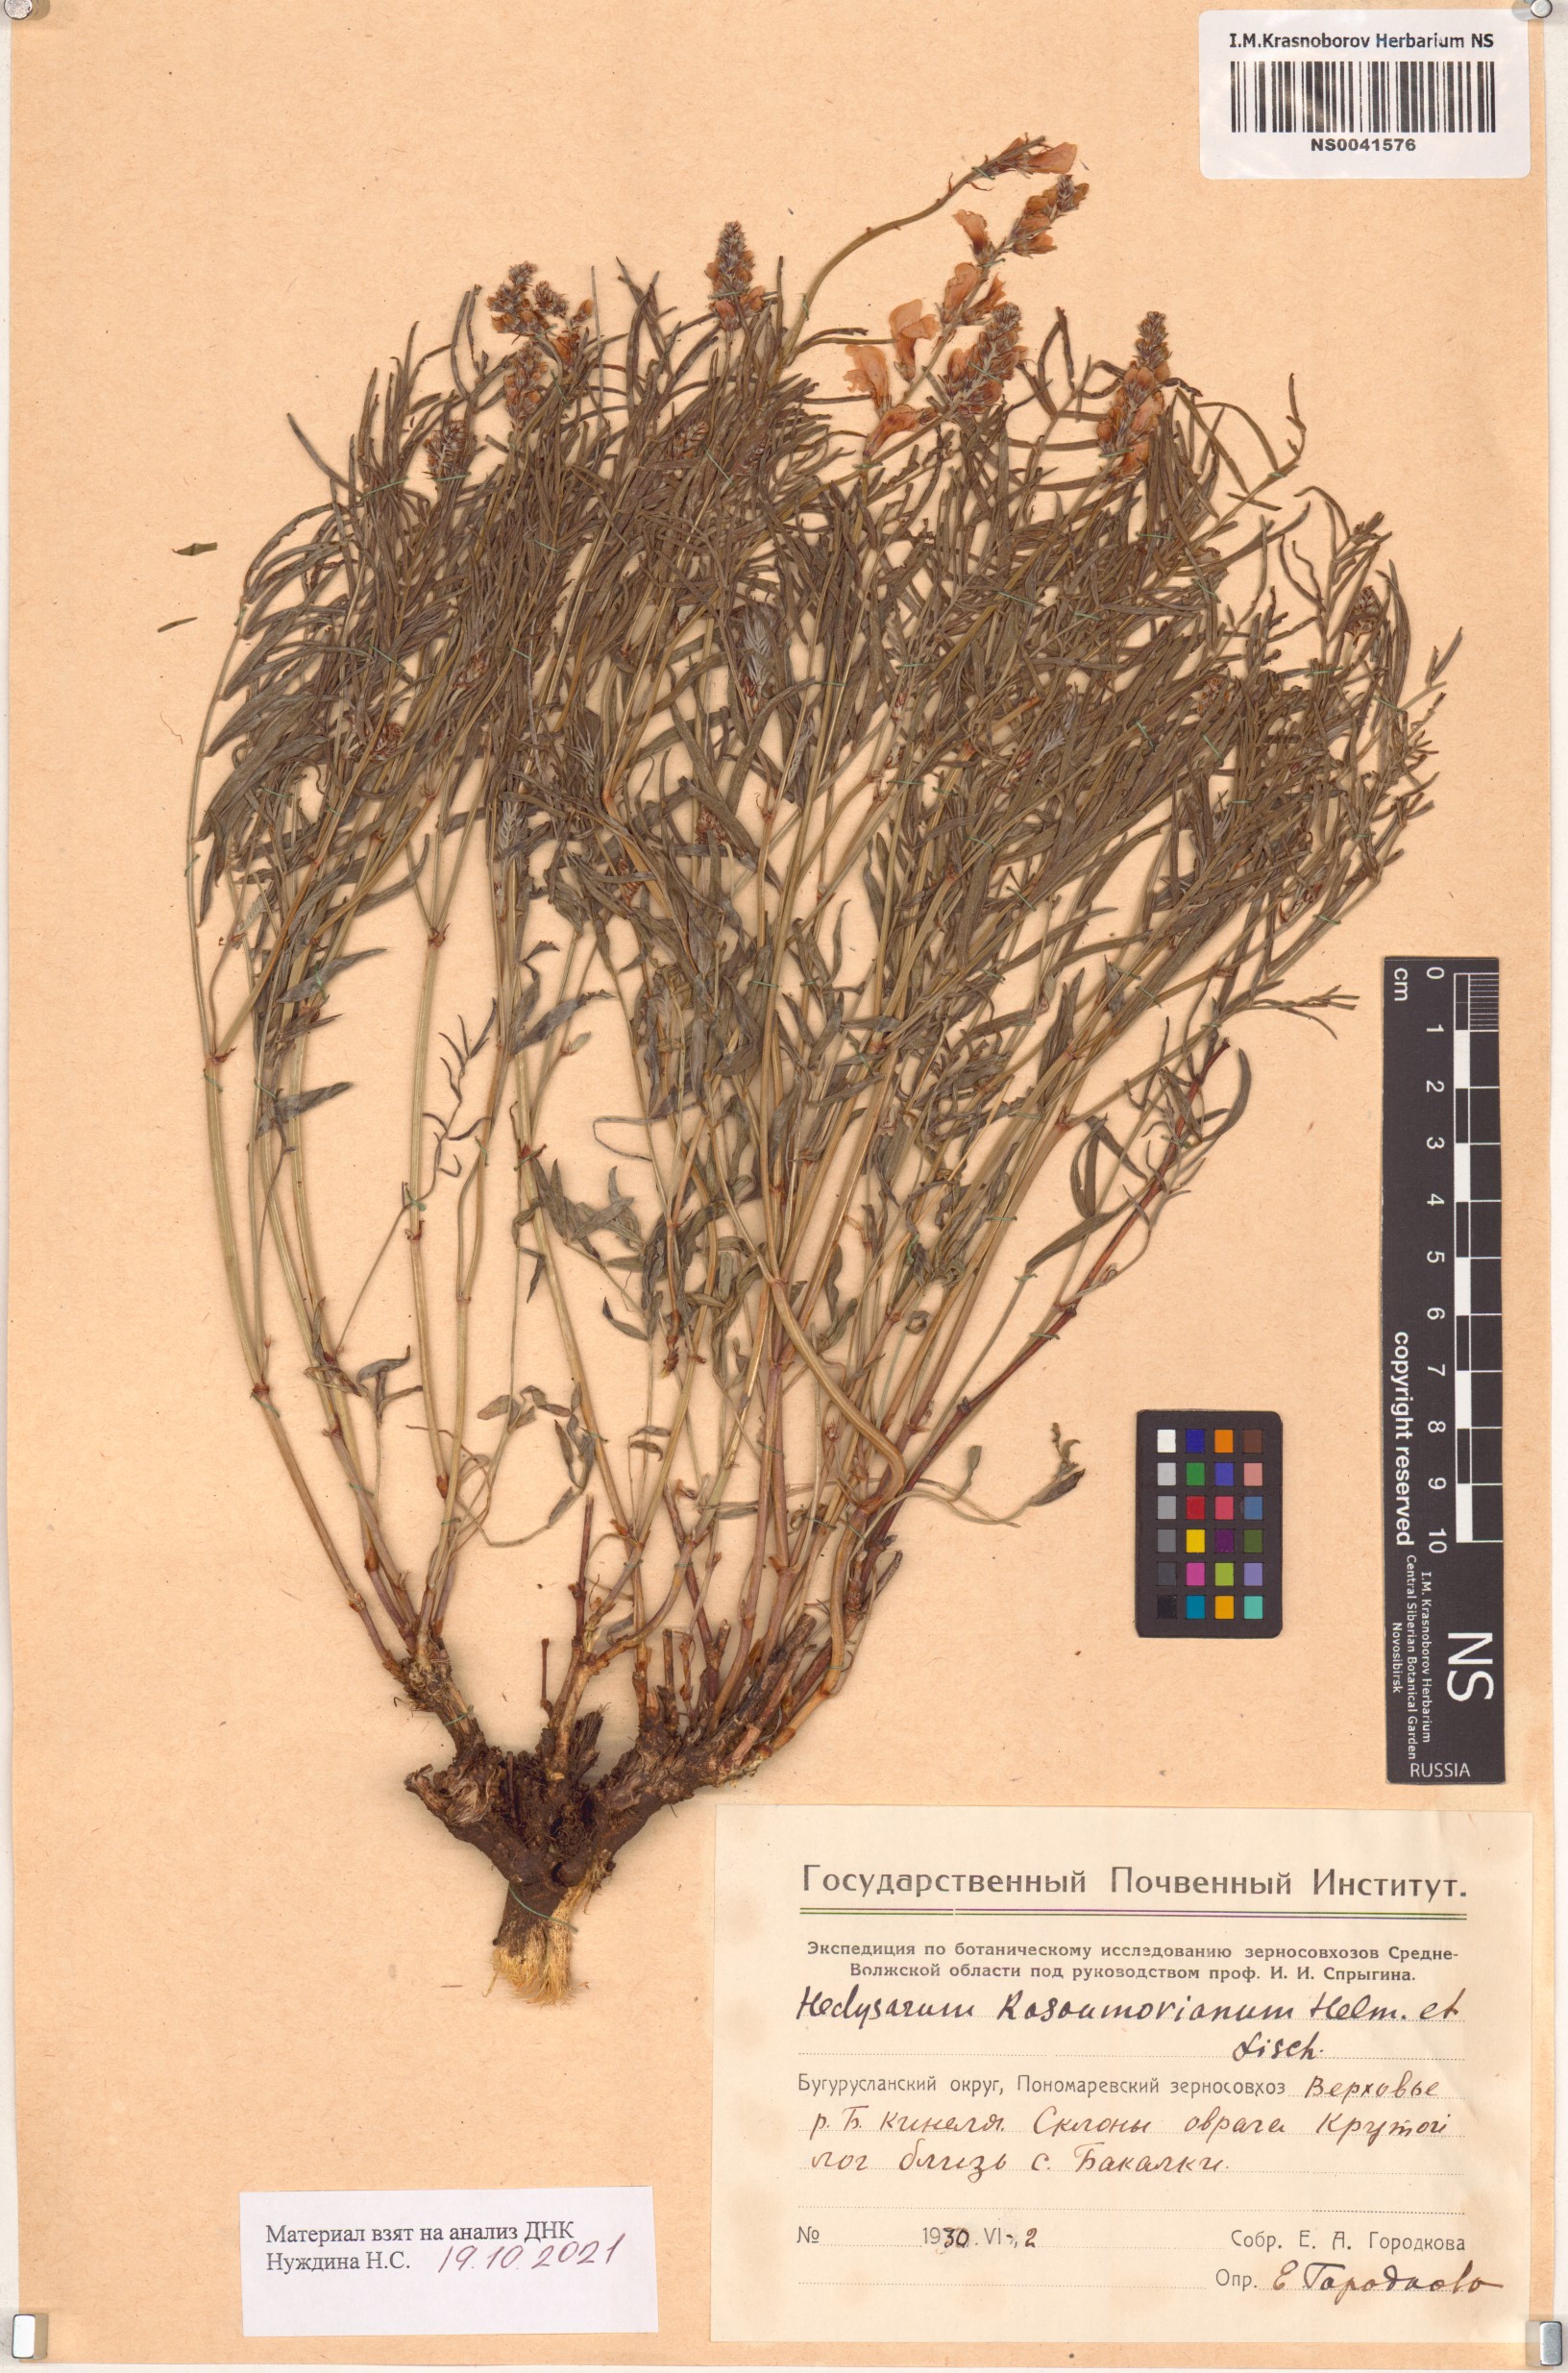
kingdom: Plantae
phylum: Tracheophyta
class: Magnoliopsida
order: Fabales
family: Fabaceae
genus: Hedysarum
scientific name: Hedysarum razoumovianum
